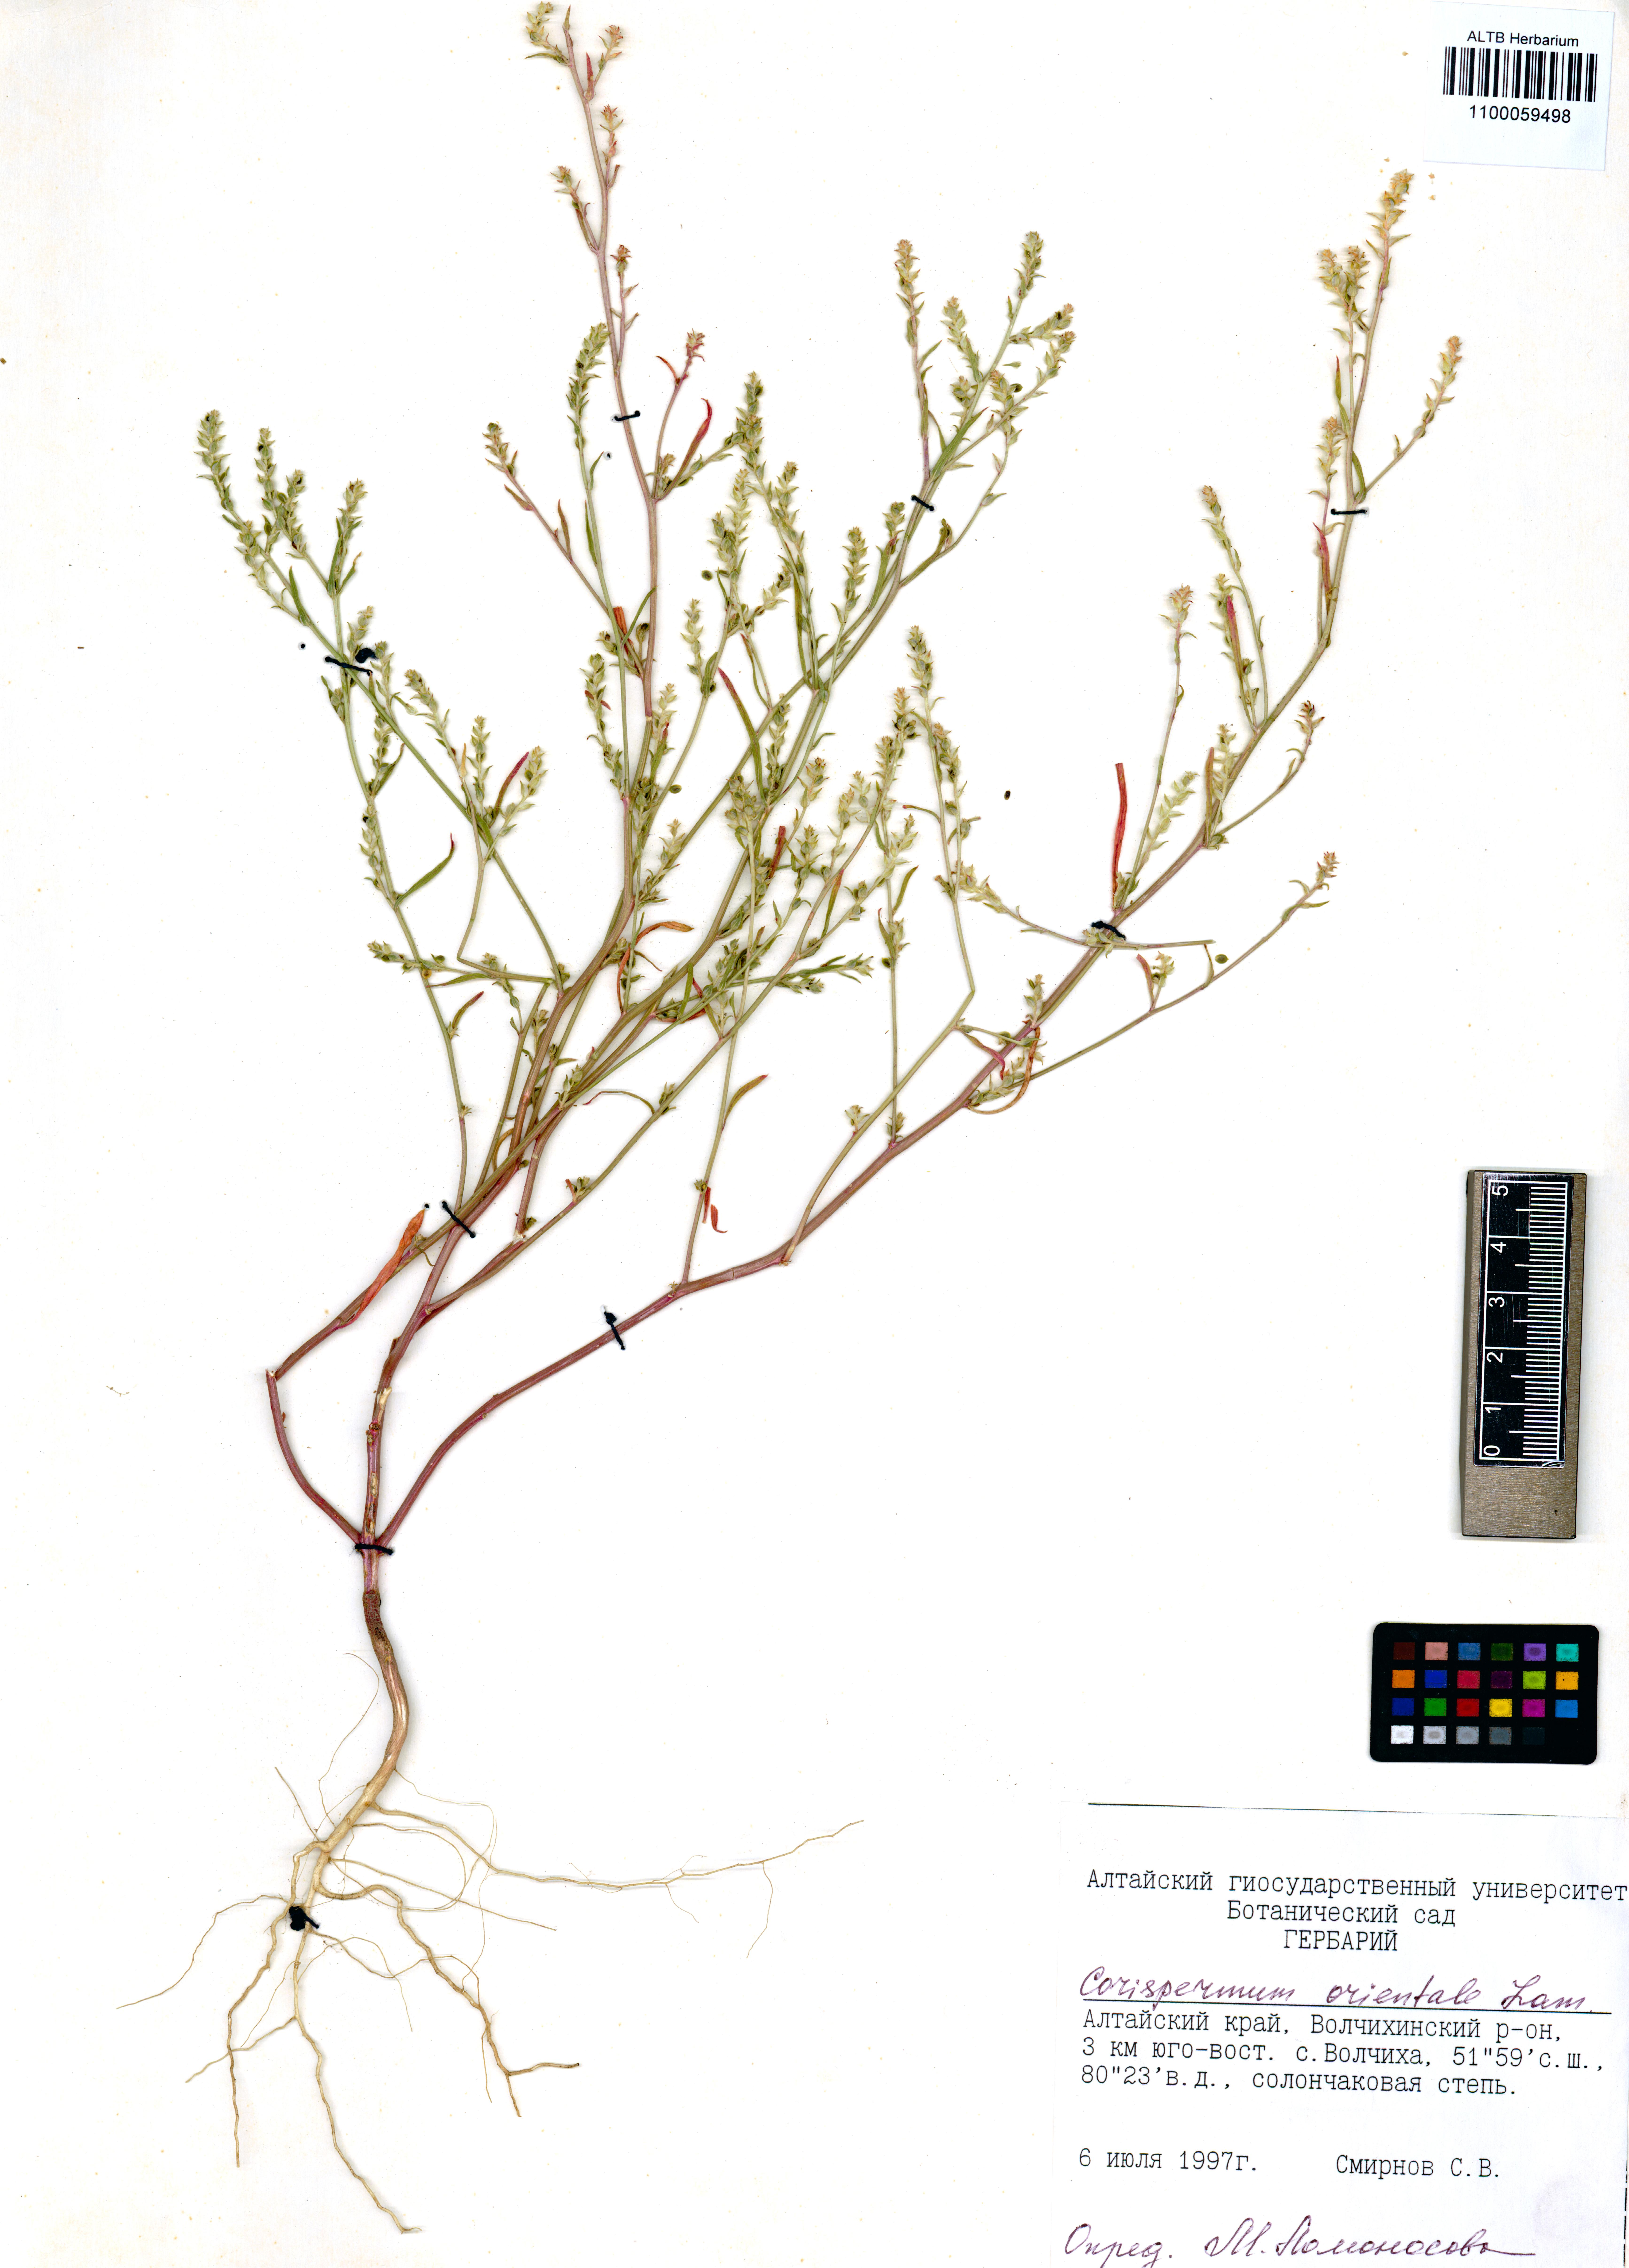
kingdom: Plantae
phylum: Tracheophyta
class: Magnoliopsida
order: Caryophyllales
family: Amaranthaceae
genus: Corispermum
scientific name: Corispermum aralocaspicum
